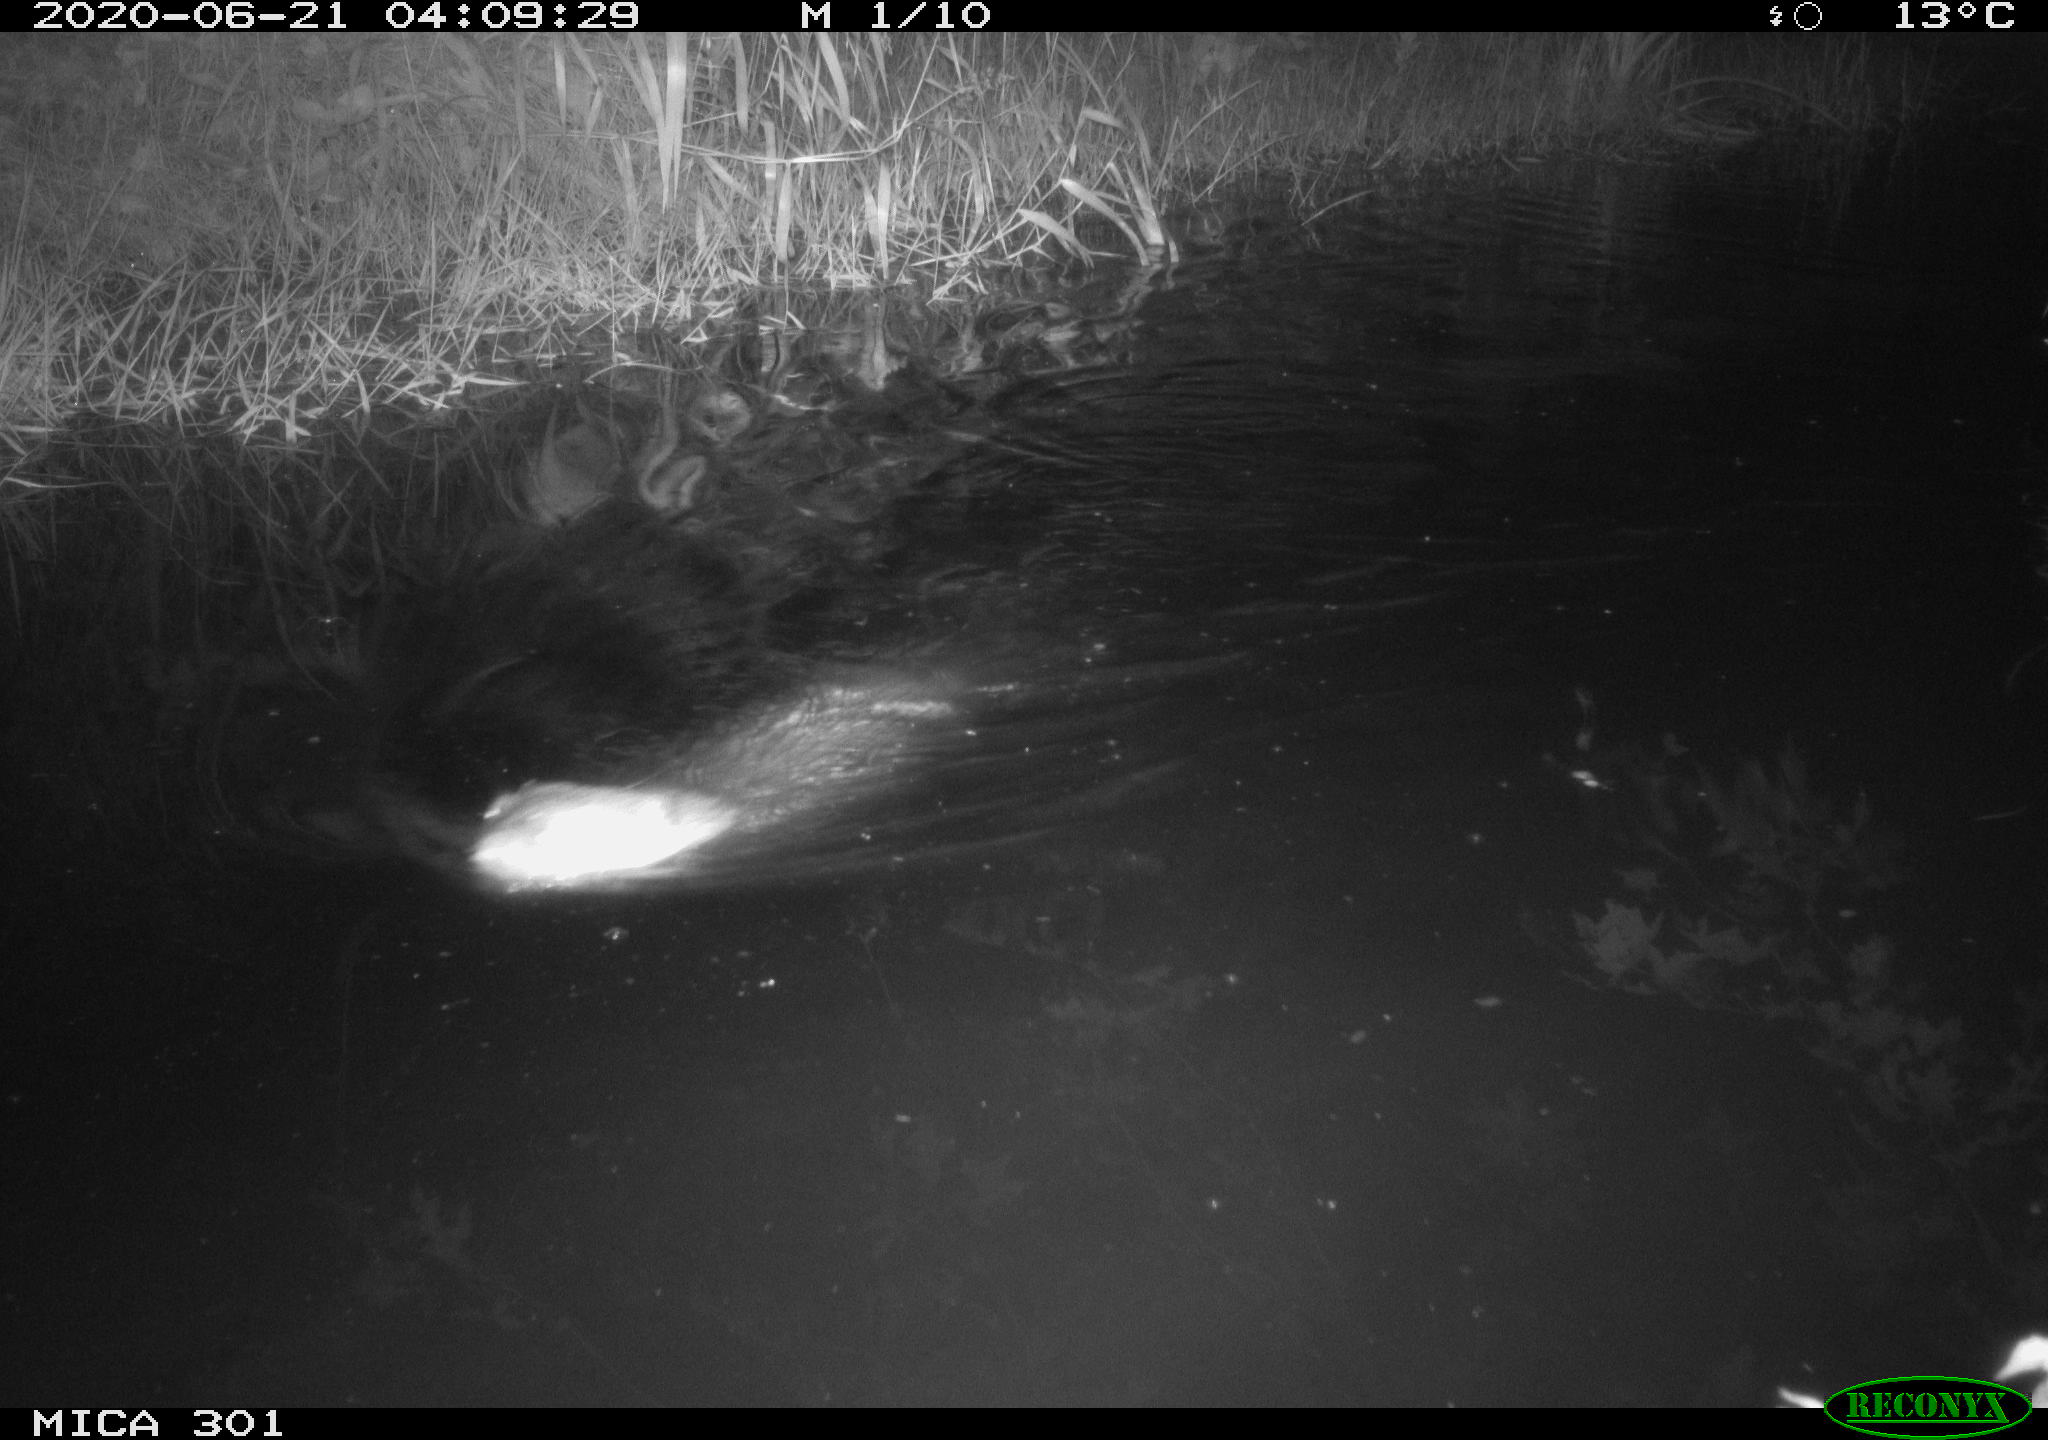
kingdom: Animalia
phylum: Chordata
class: Mammalia
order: Rodentia
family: Castoridae
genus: Castor
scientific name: Castor fiber
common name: Eurasian beaver
